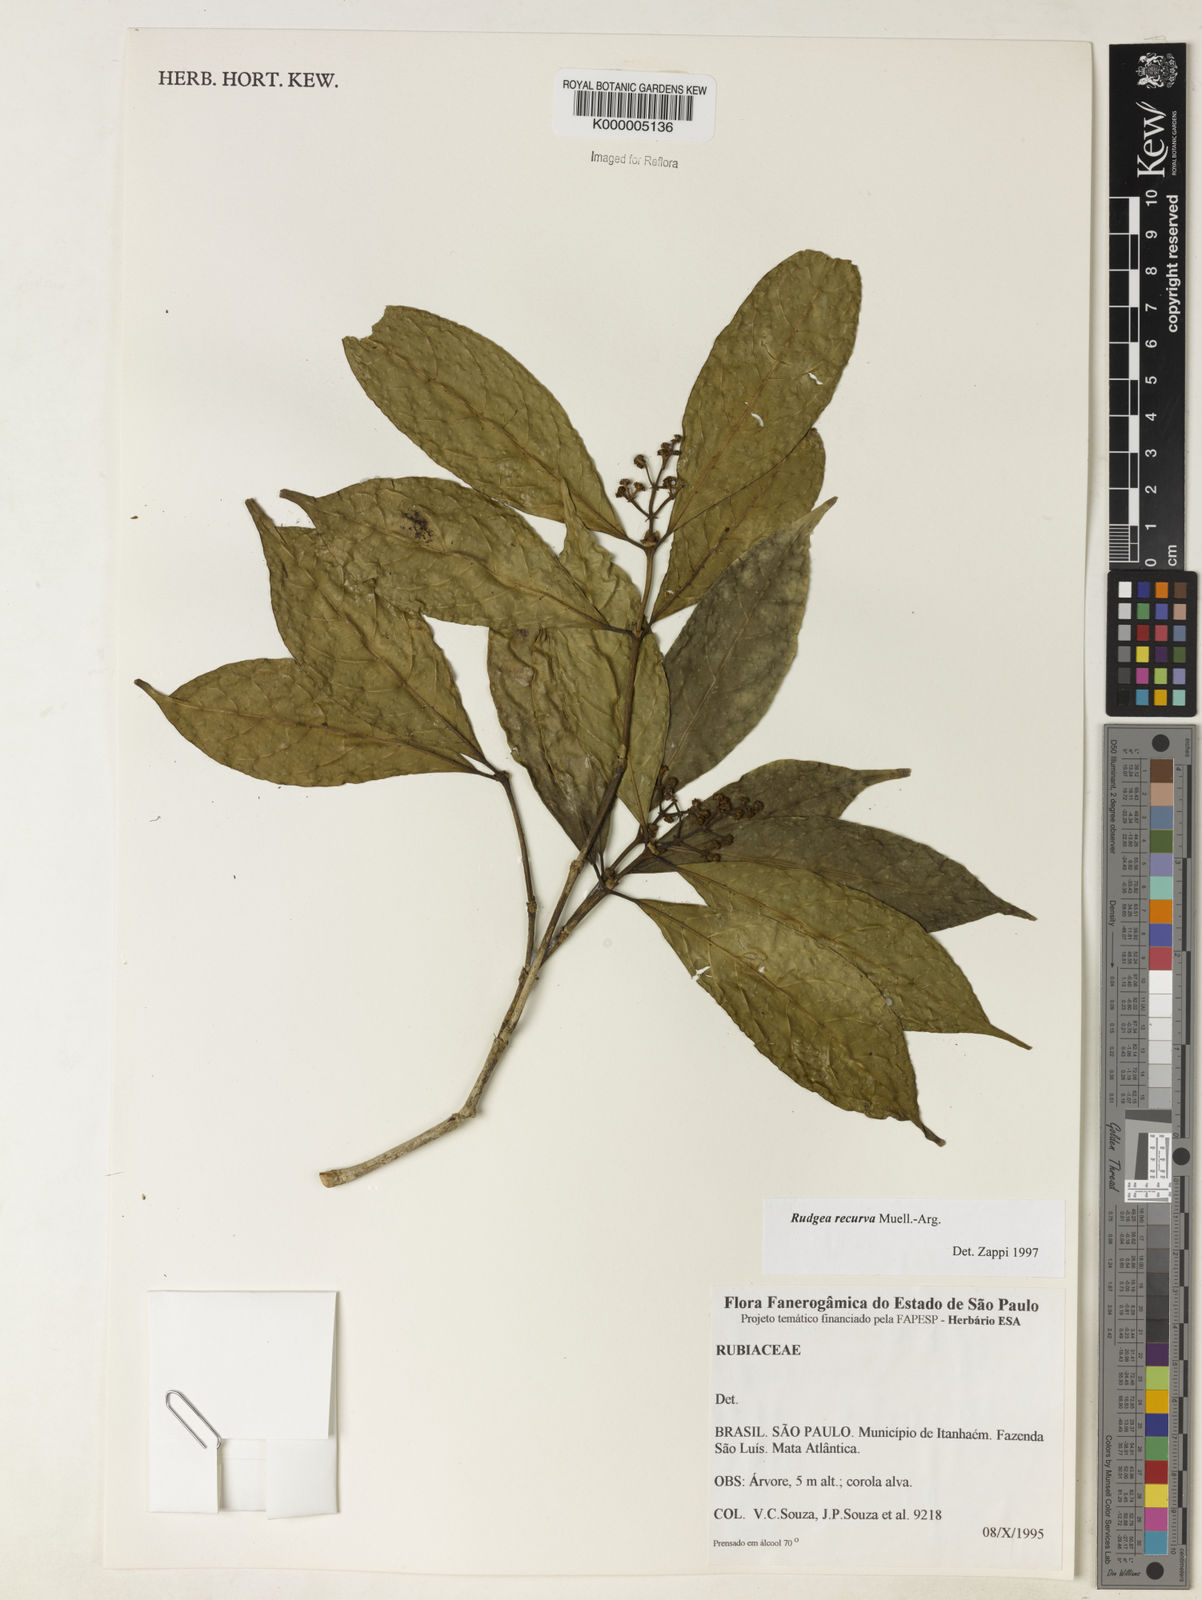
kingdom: Plantae
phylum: Tracheophyta
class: Magnoliopsida
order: Gentianales
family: Rubiaceae
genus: Rudgea
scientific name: Rudgea recurva
